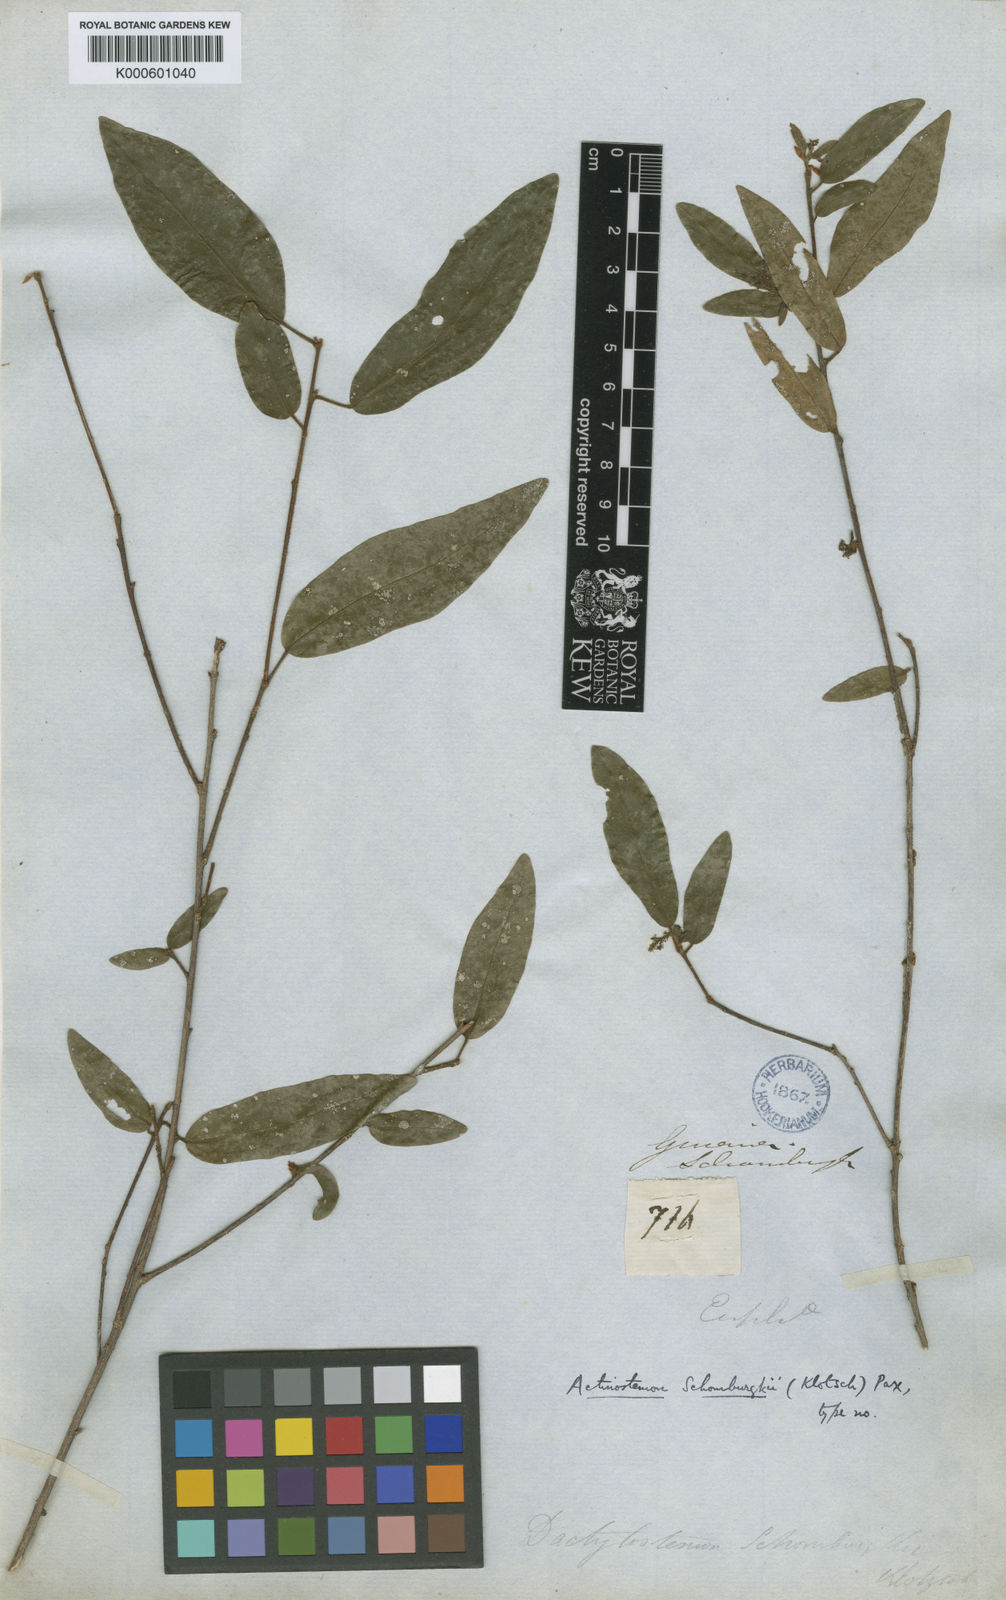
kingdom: Plantae
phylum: Tracheophyta
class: Magnoliopsida
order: Malpighiales
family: Euphorbiaceae
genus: Actinostemon
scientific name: Actinostemon schomburgkii
